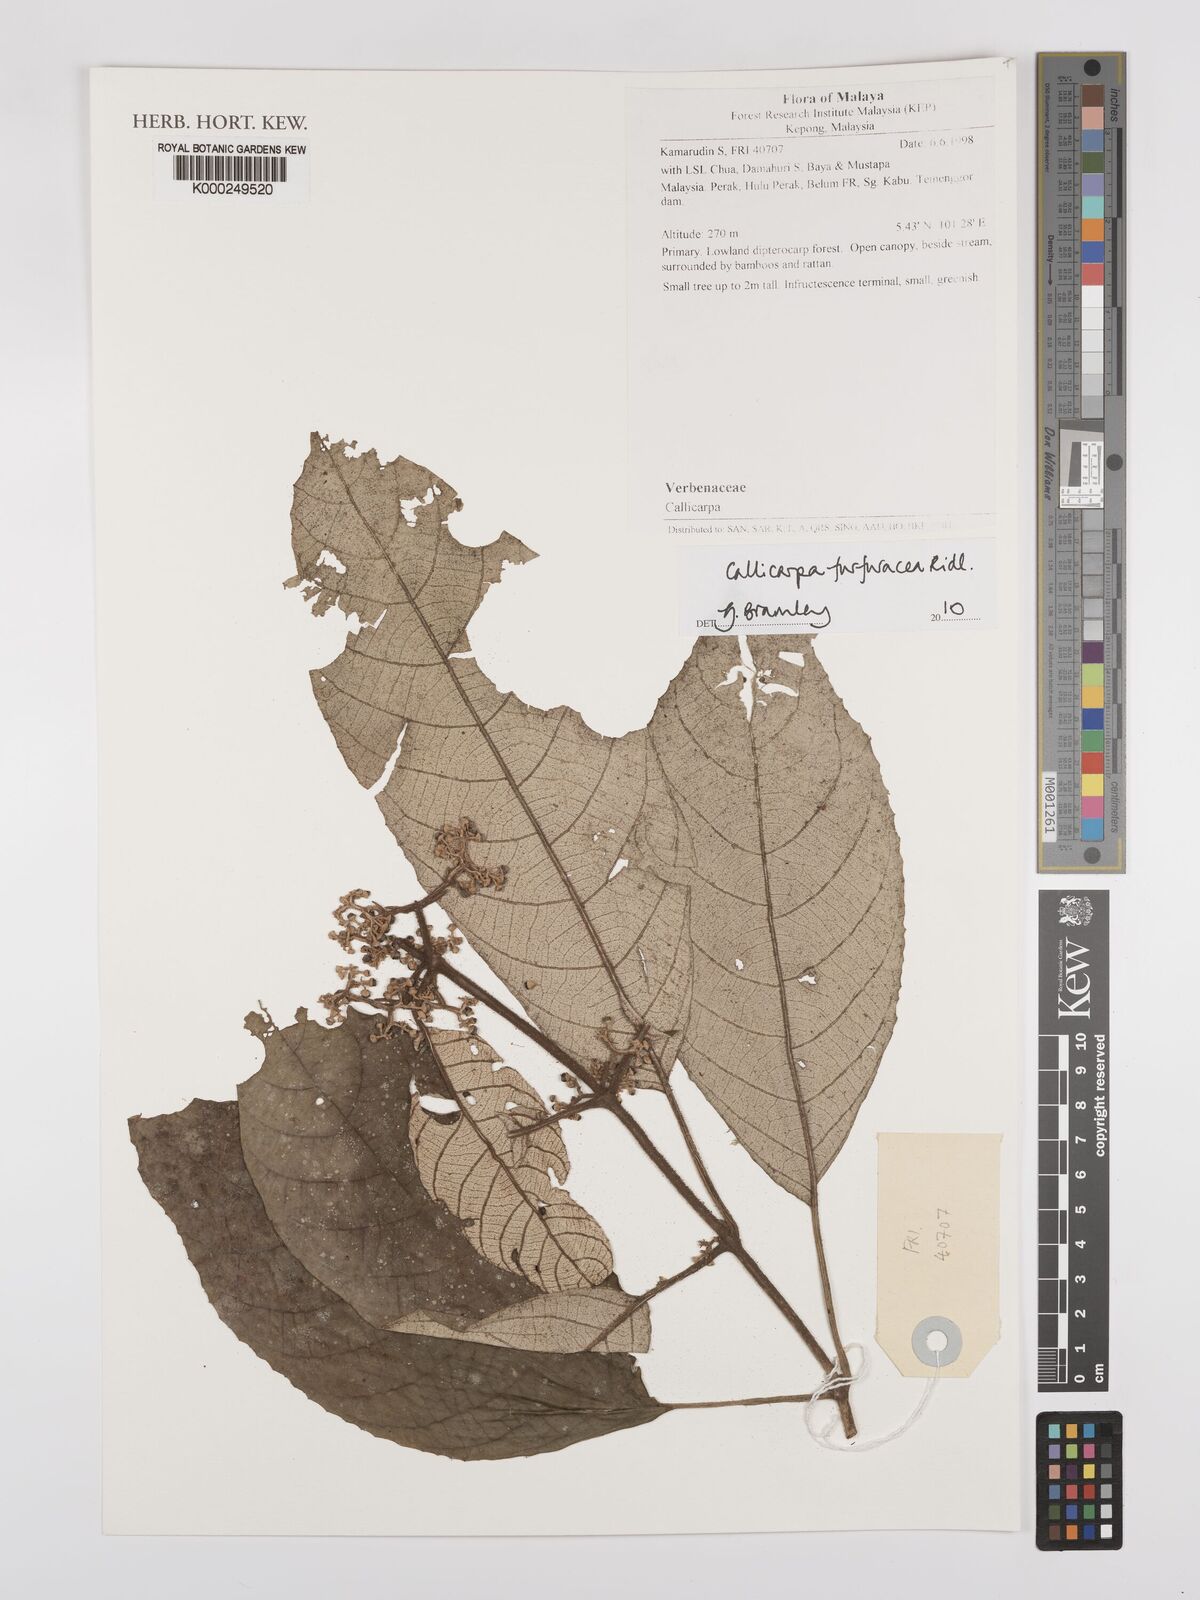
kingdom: Plantae
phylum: Tracheophyta
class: Magnoliopsida
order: Lamiales
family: Lamiaceae
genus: Callicarpa
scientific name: Callicarpa furfuracea
